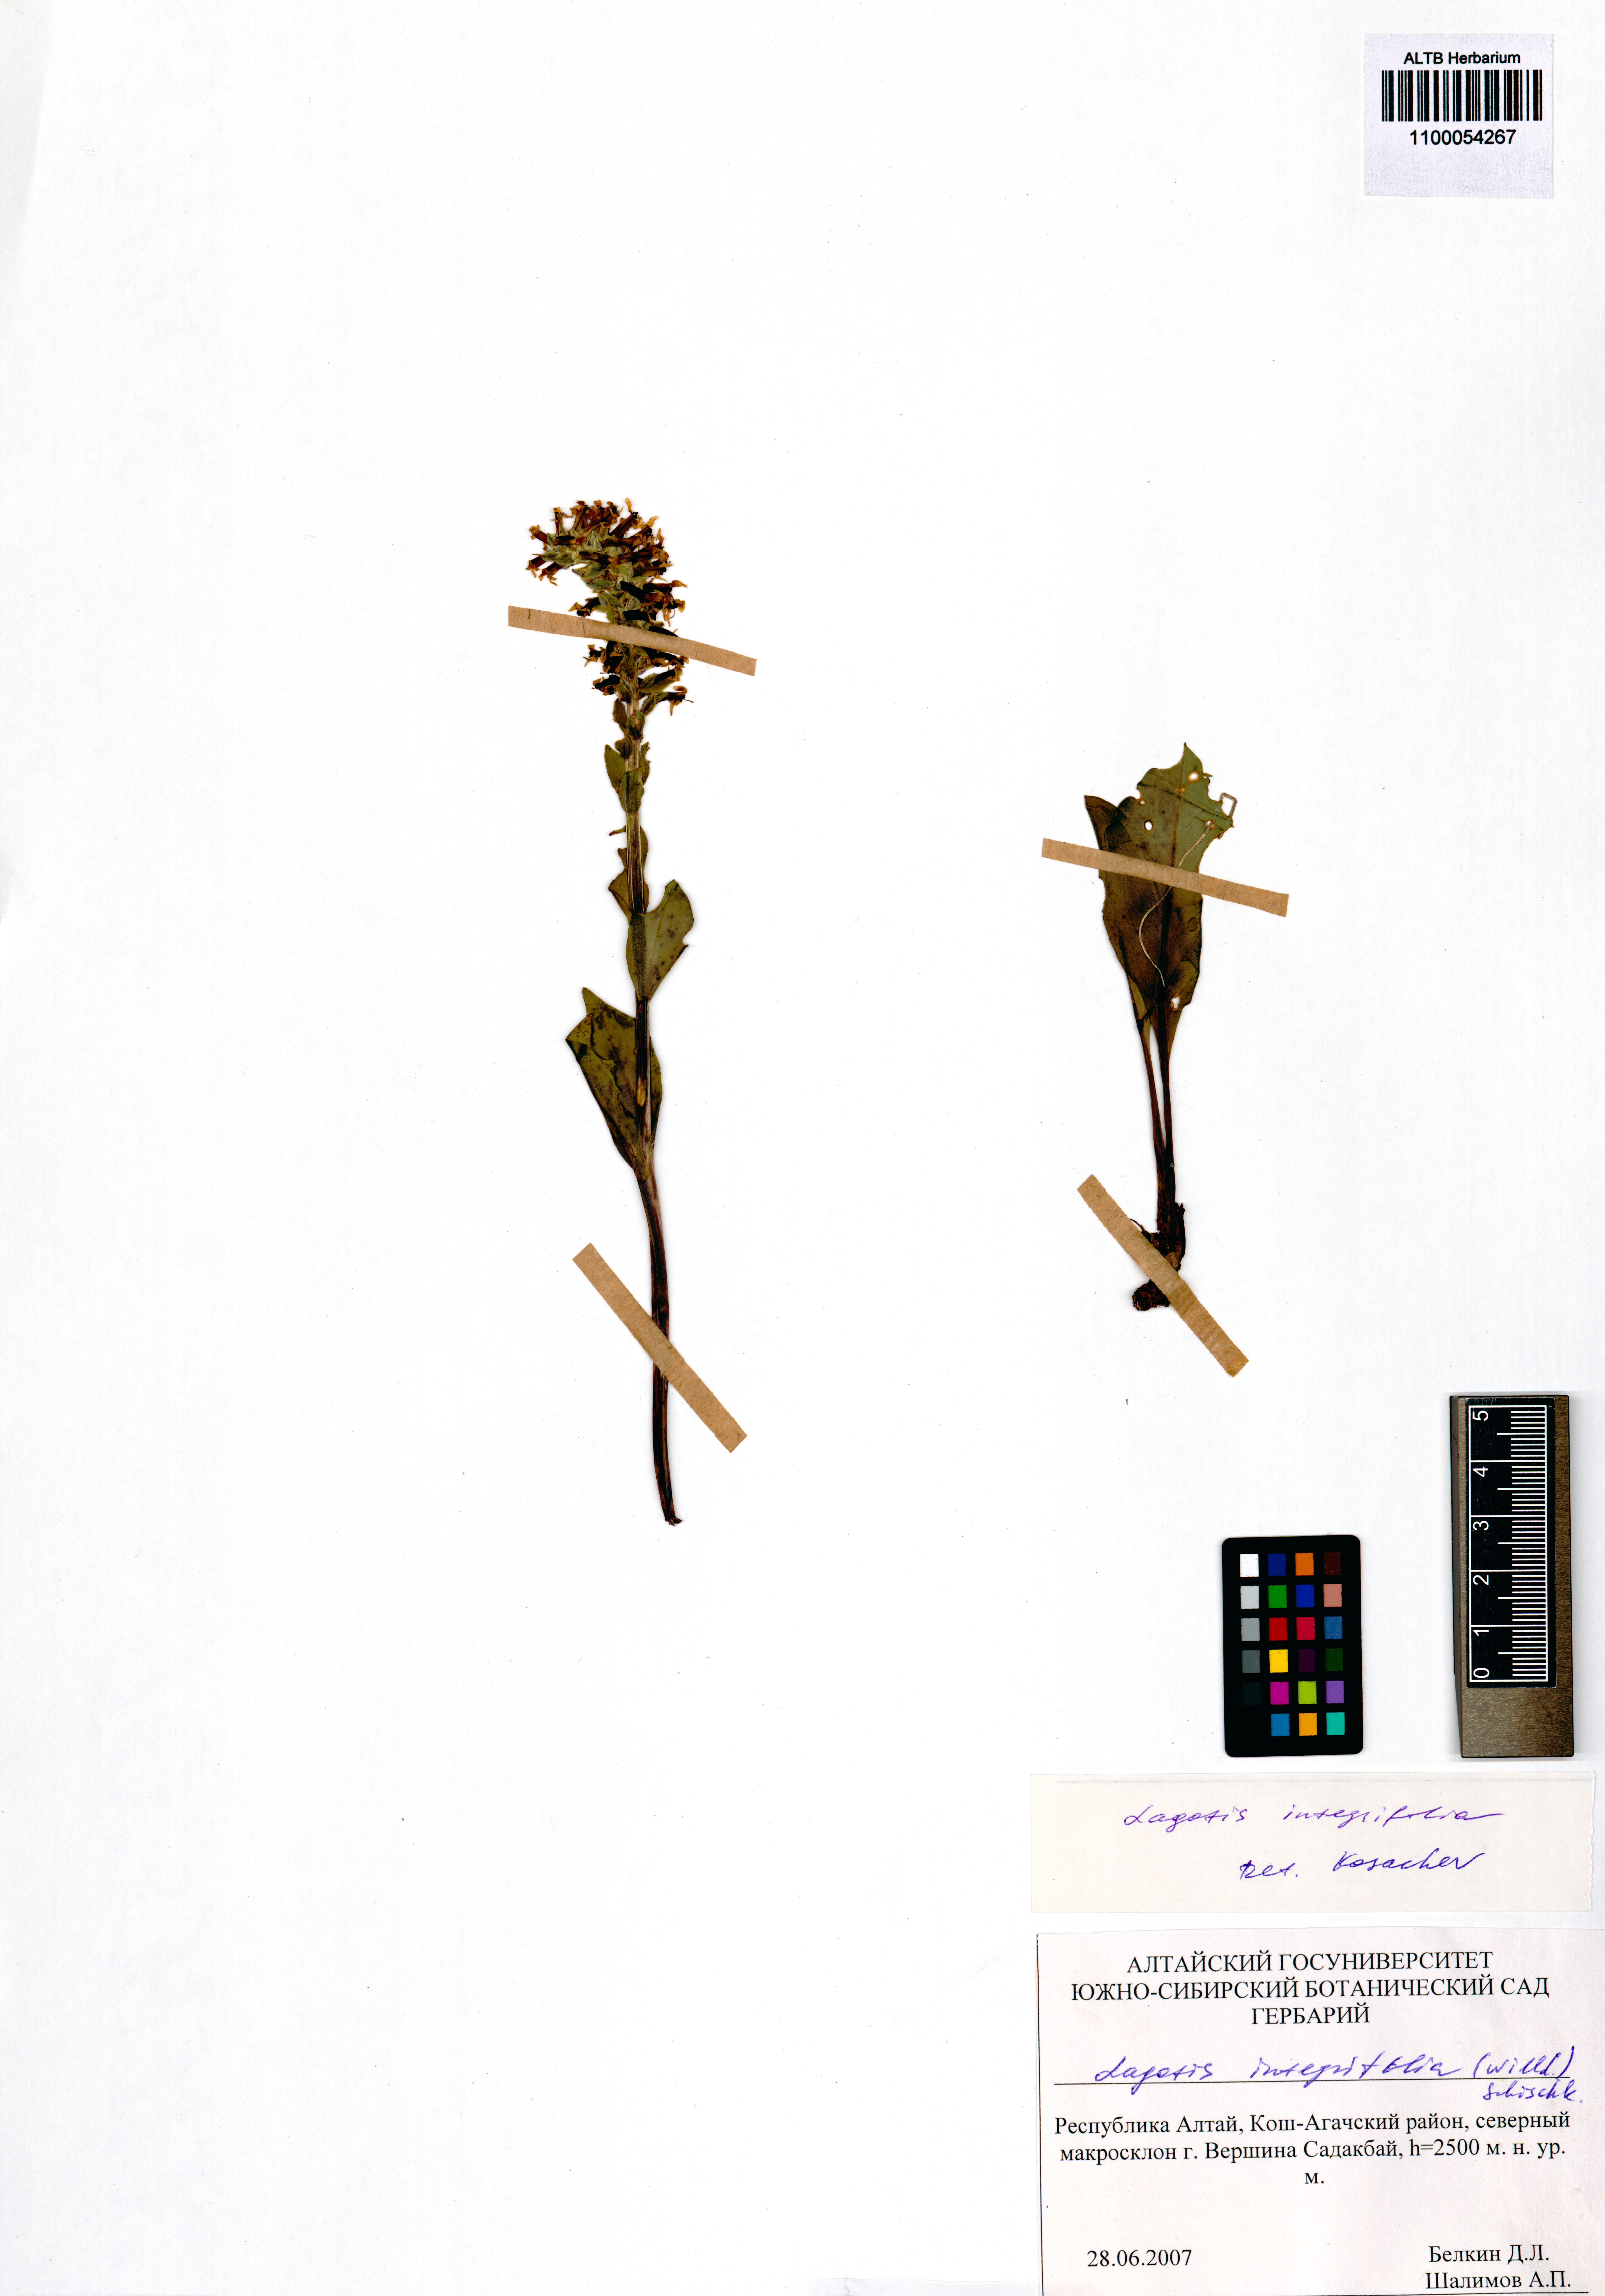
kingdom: Plantae
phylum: Tracheophyta
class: Magnoliopsida
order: Lamiales
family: Plantaginaceae
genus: Lagotis
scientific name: Lagotis integrifolia
